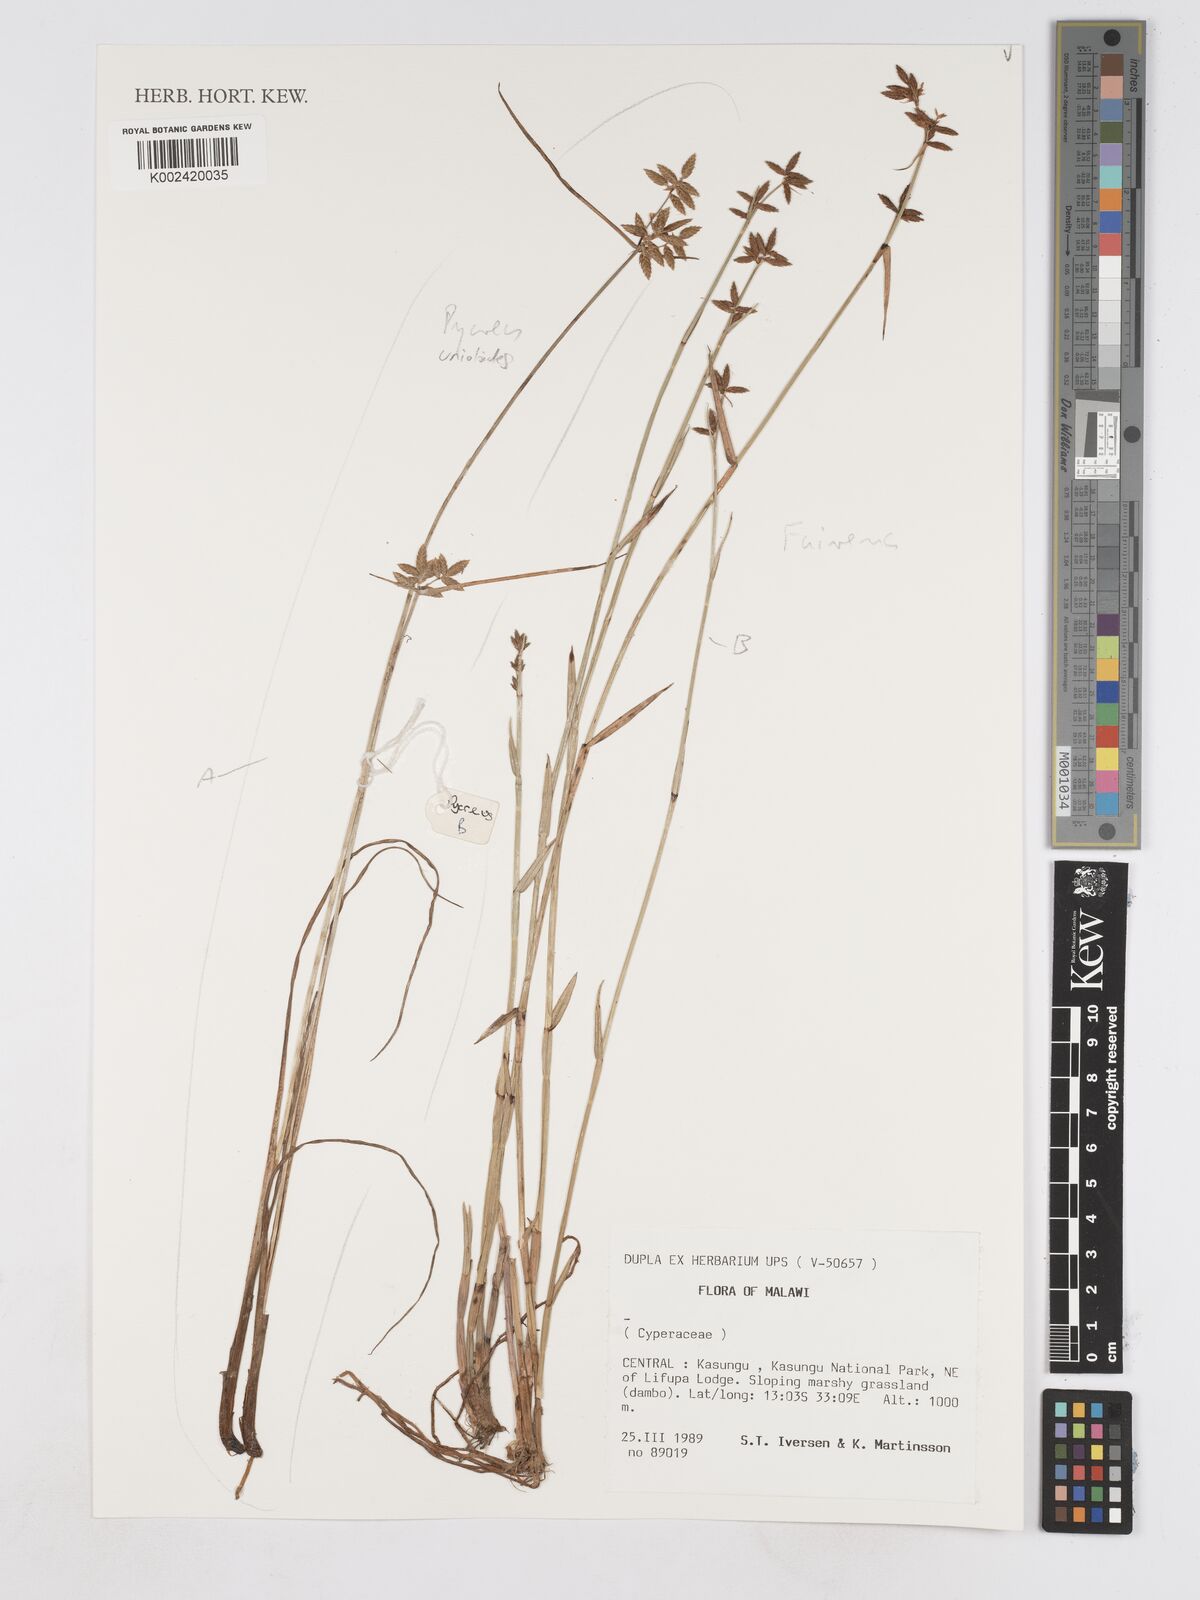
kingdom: Plantae
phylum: Tracheophyta
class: Liliopsida
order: Poales
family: Cyperaceae
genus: Fuirena
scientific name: Fuirena
